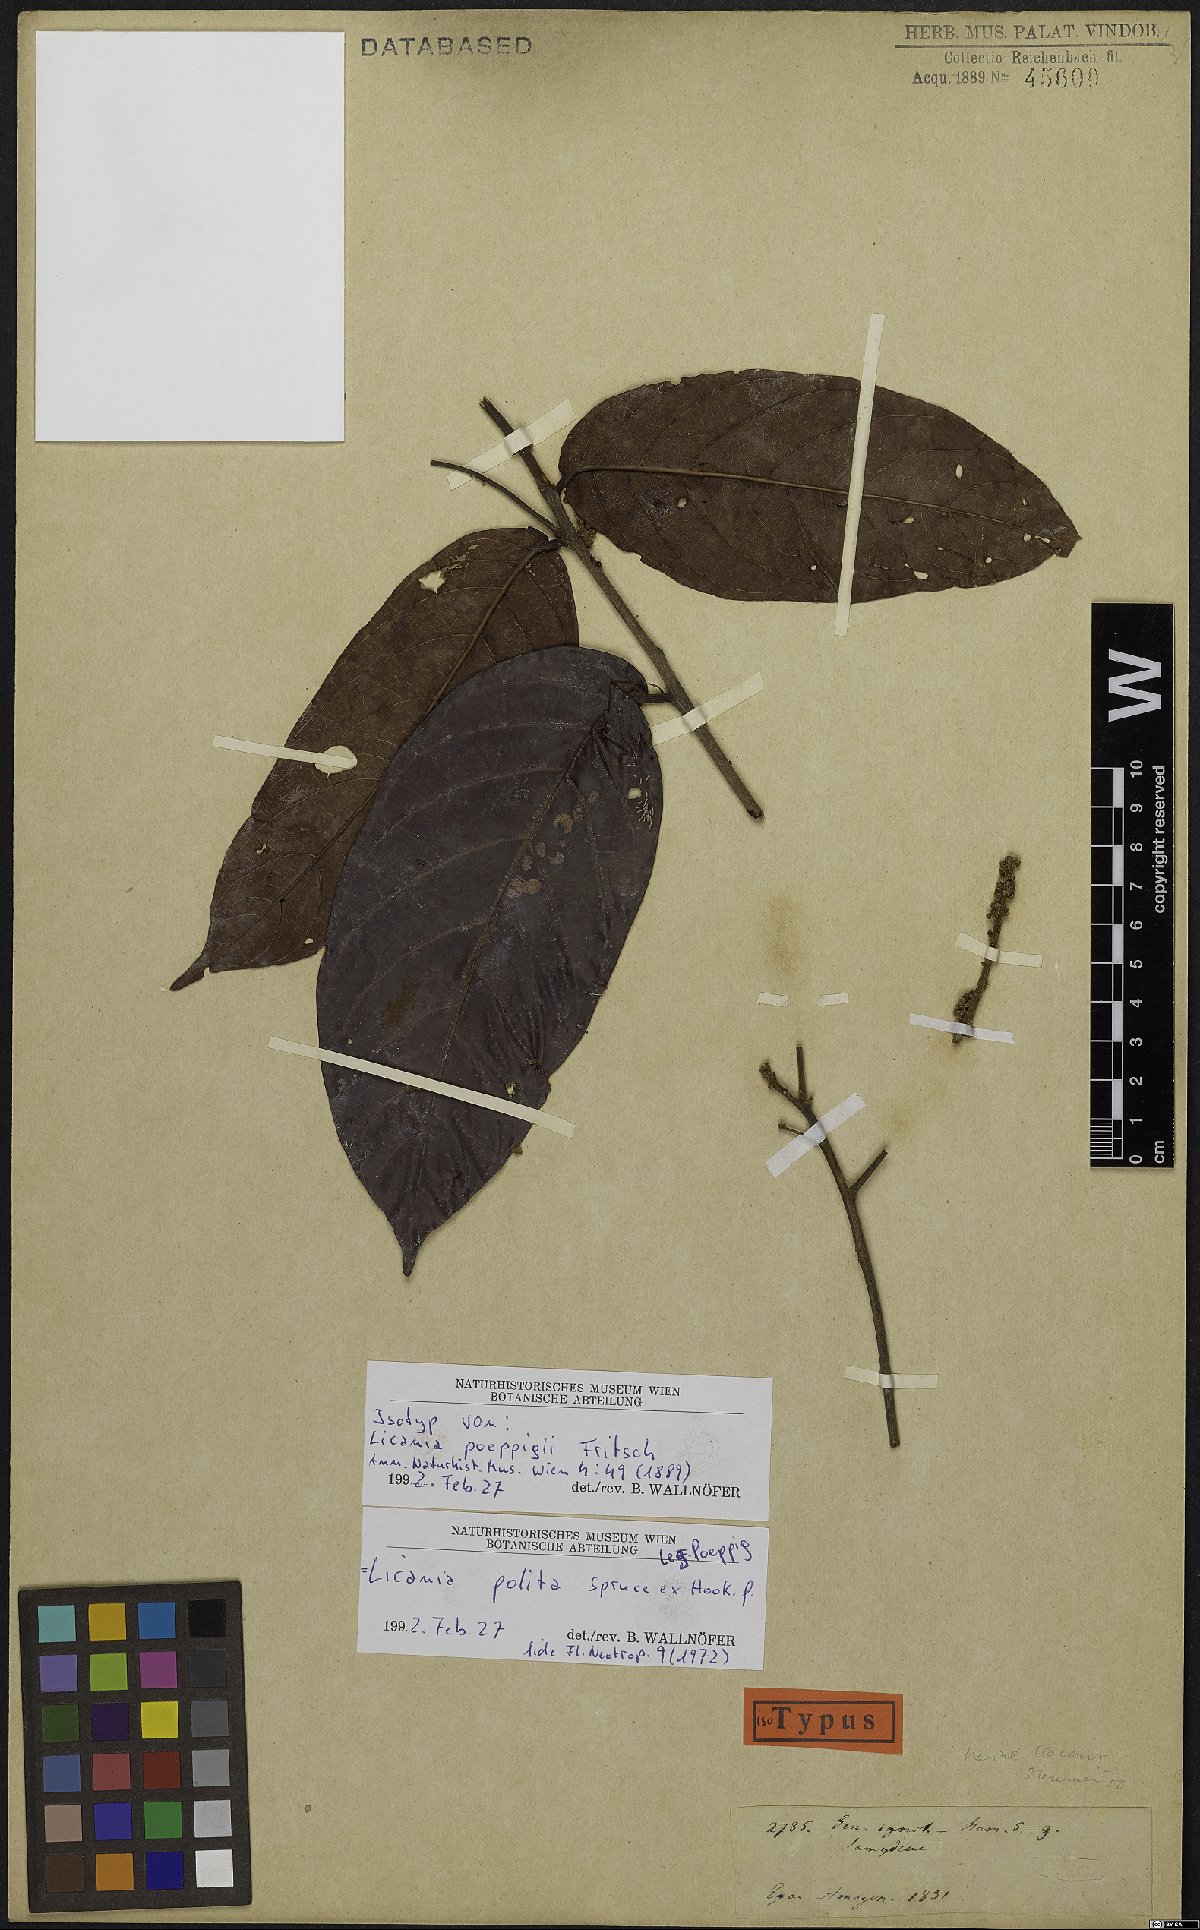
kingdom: Plantae
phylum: Tracheophyta
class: Magnoliopsida
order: Malpighiales
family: Chrysobalanaceae
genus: Licania
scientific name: Licania polita
